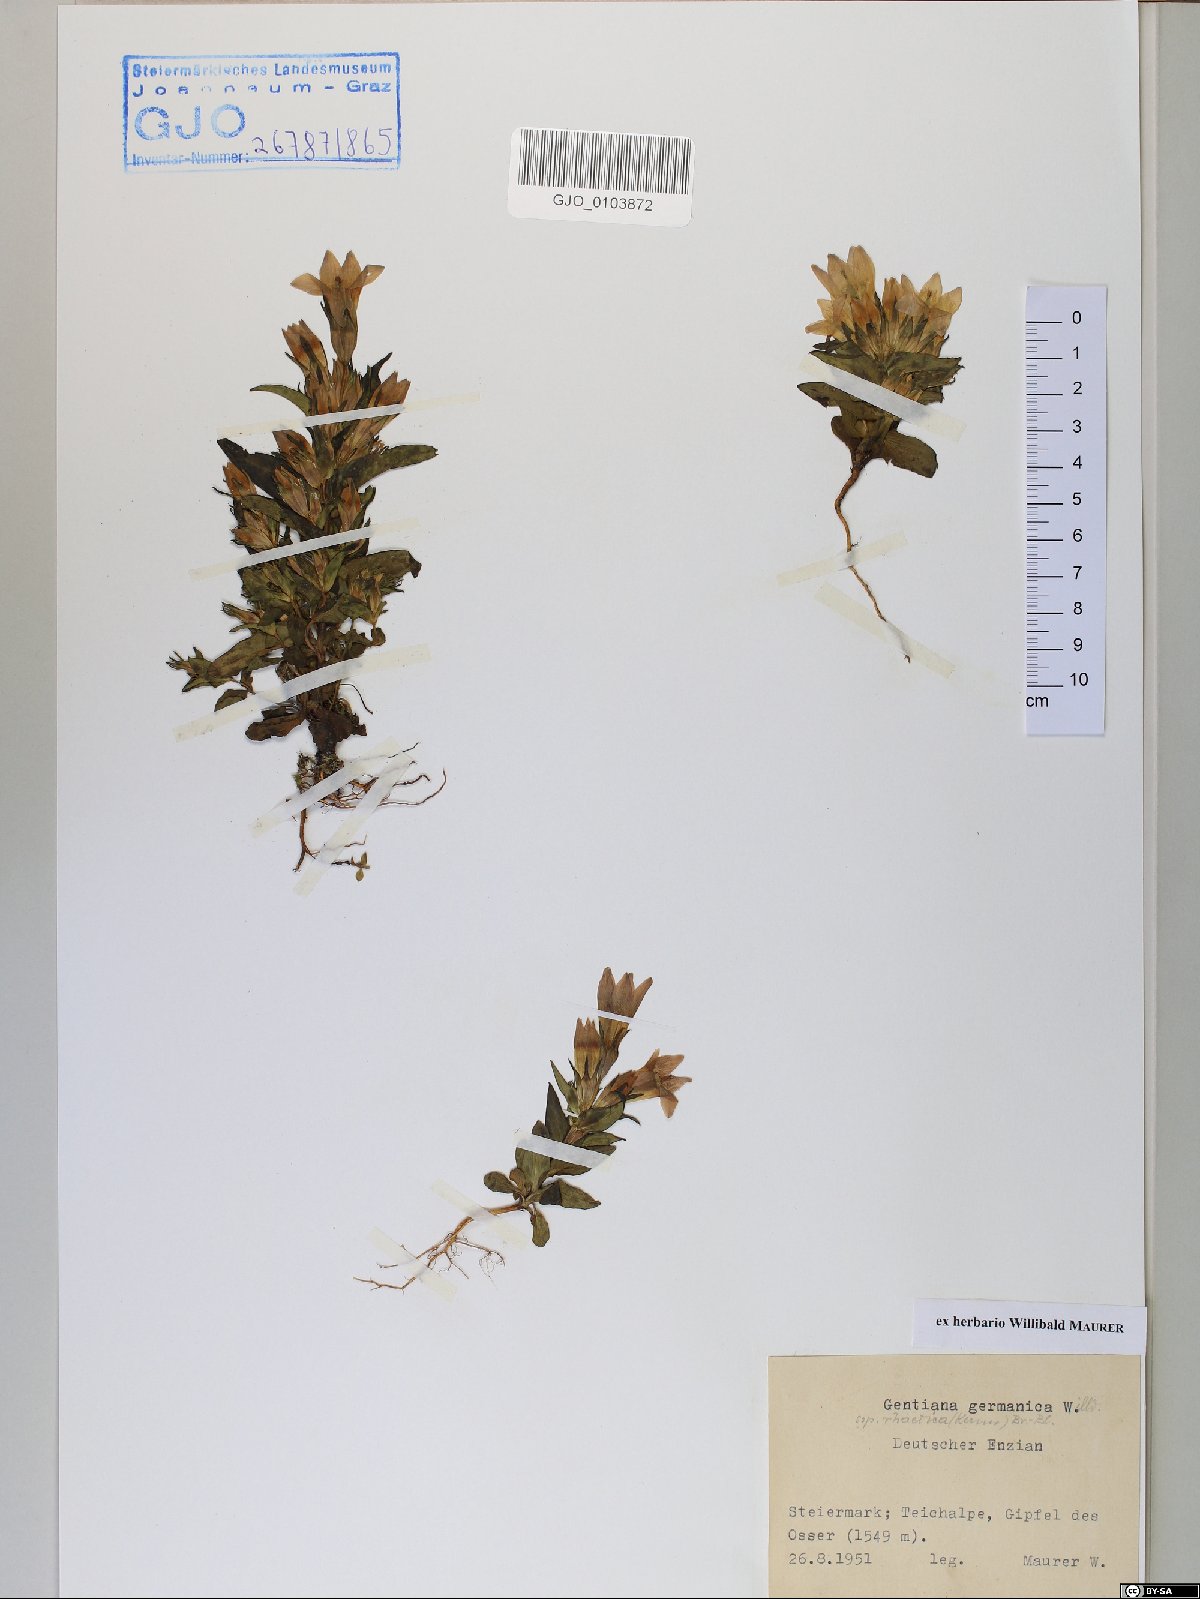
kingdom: Plantae
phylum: Tracheophyta
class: Magnoliopsida
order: Gentianales
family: Gentianaceae
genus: Gentianella
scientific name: Gentianella rhaetica
